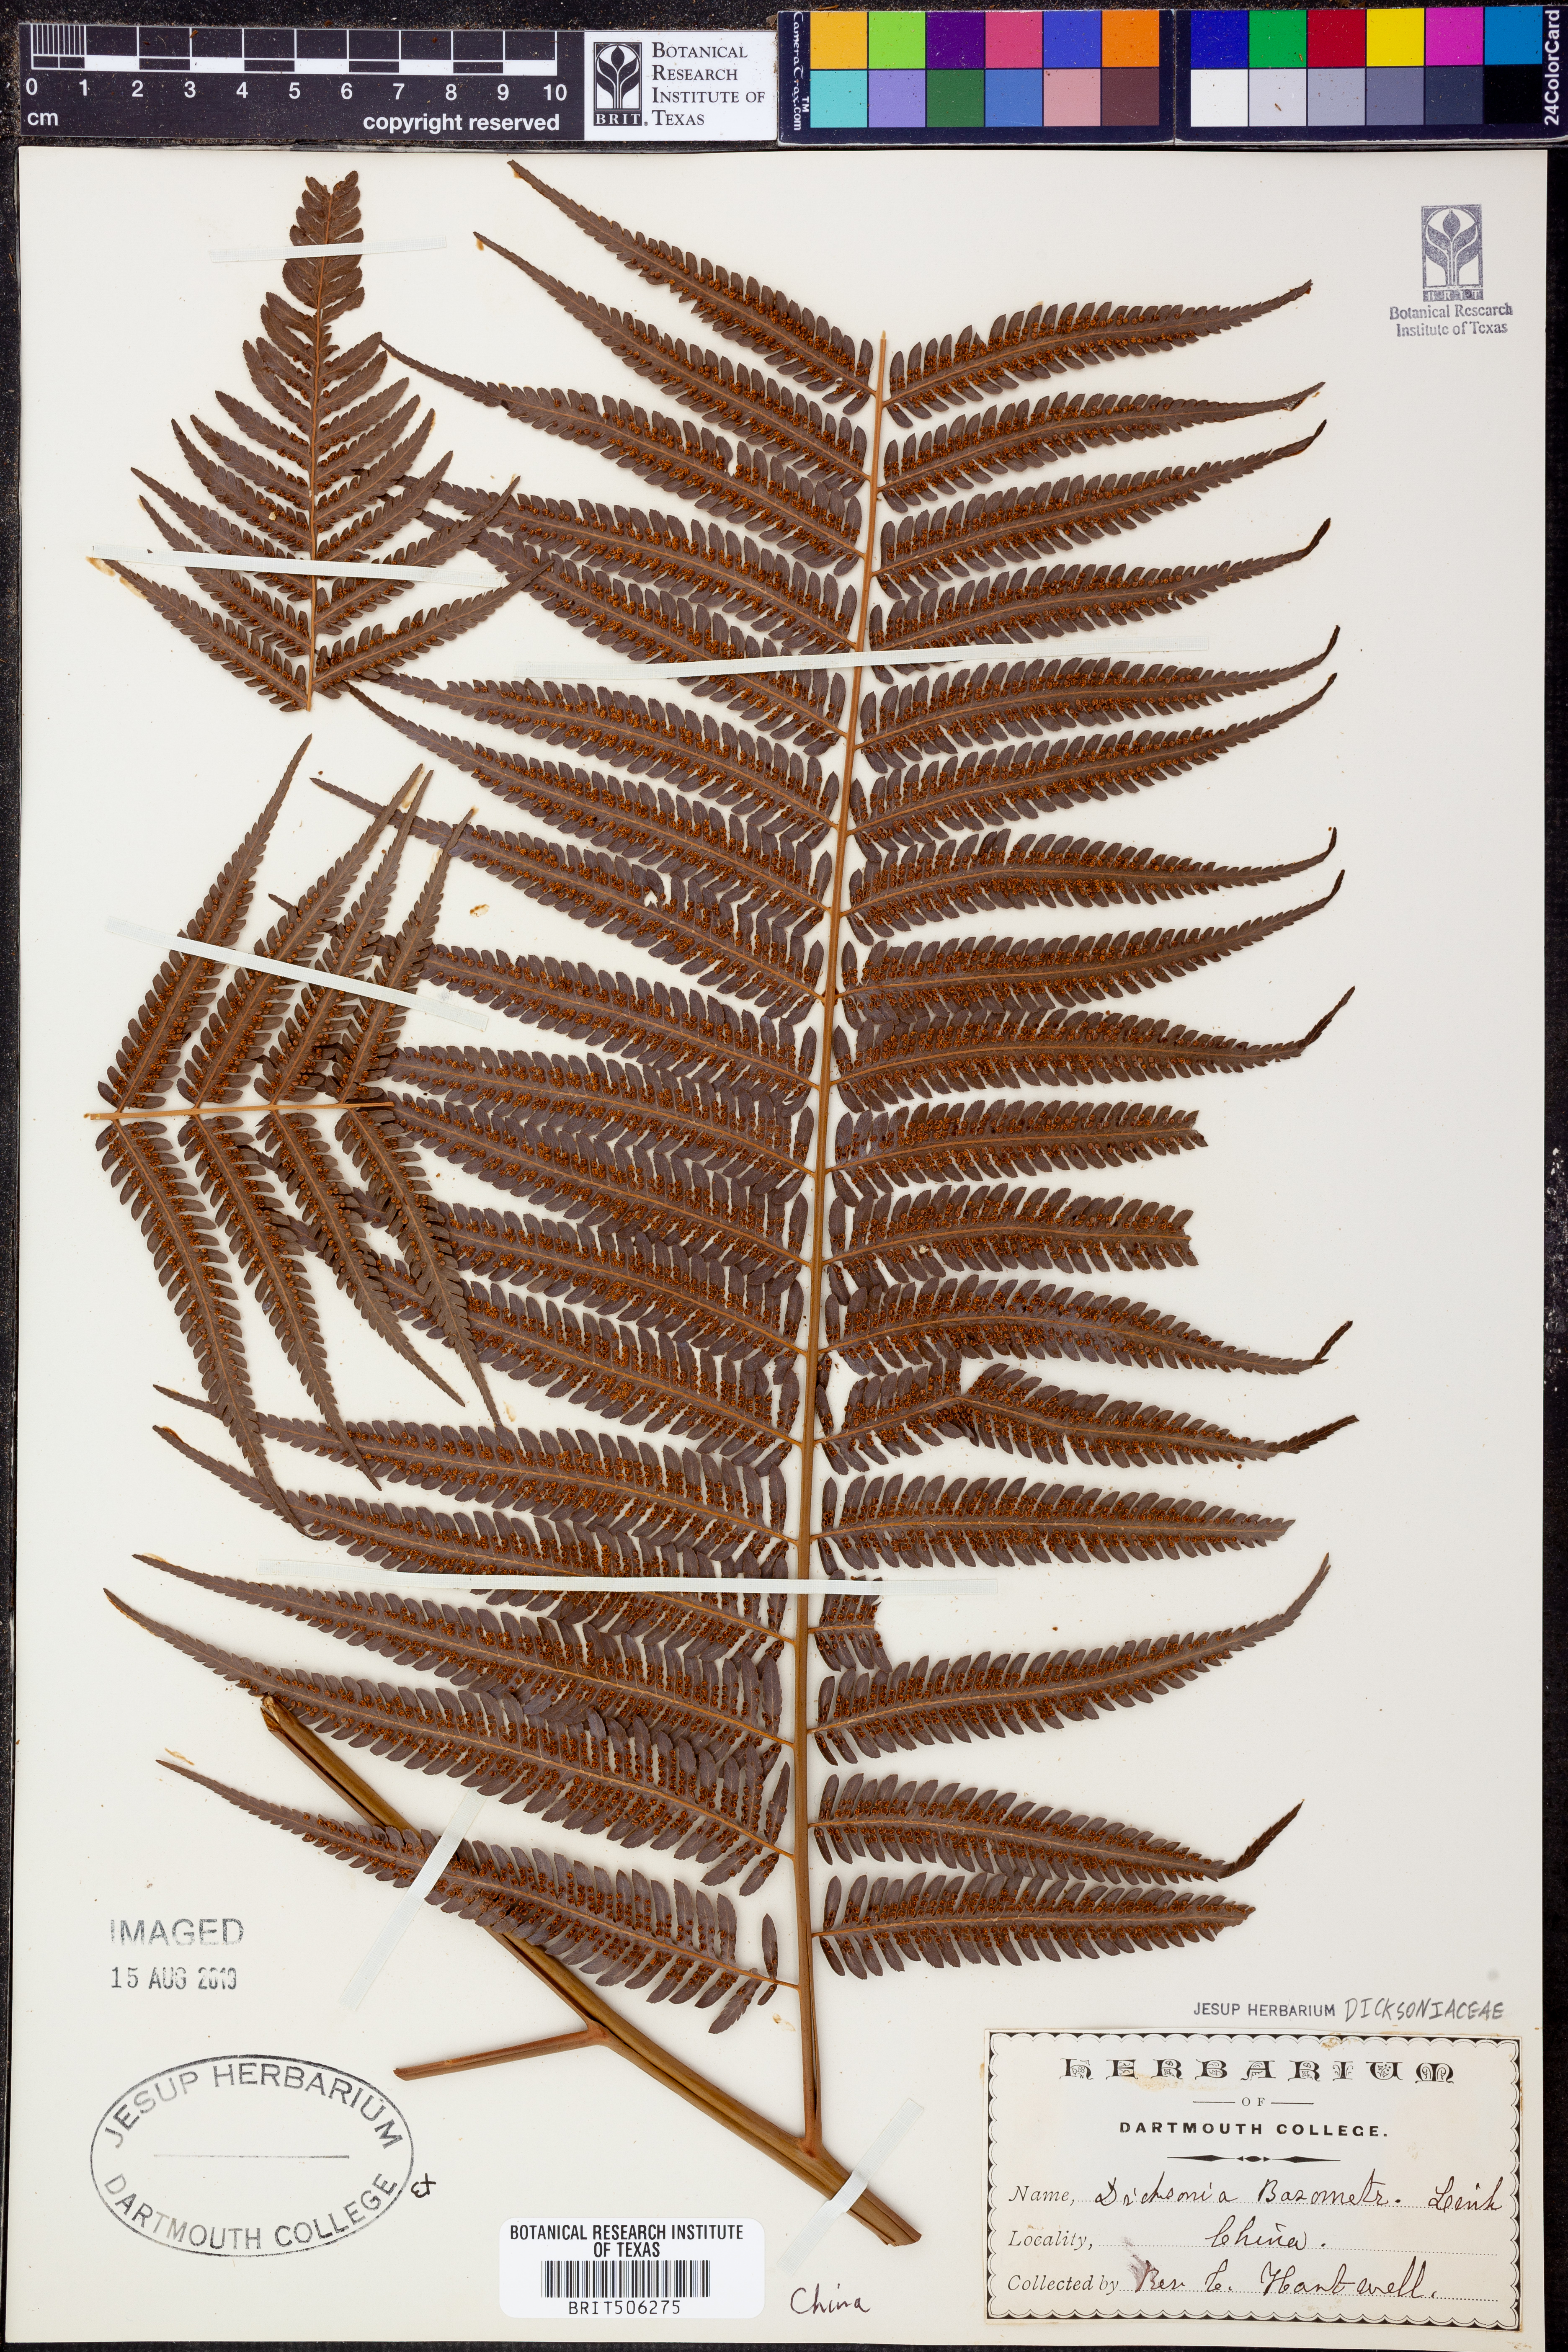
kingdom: Plantae
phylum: Tracheophyta
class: Polypodiopsida
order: Cyatheales
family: Cibotiaceae
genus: Cibotium
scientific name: Cibotium barometz
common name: Scythian-lamb
